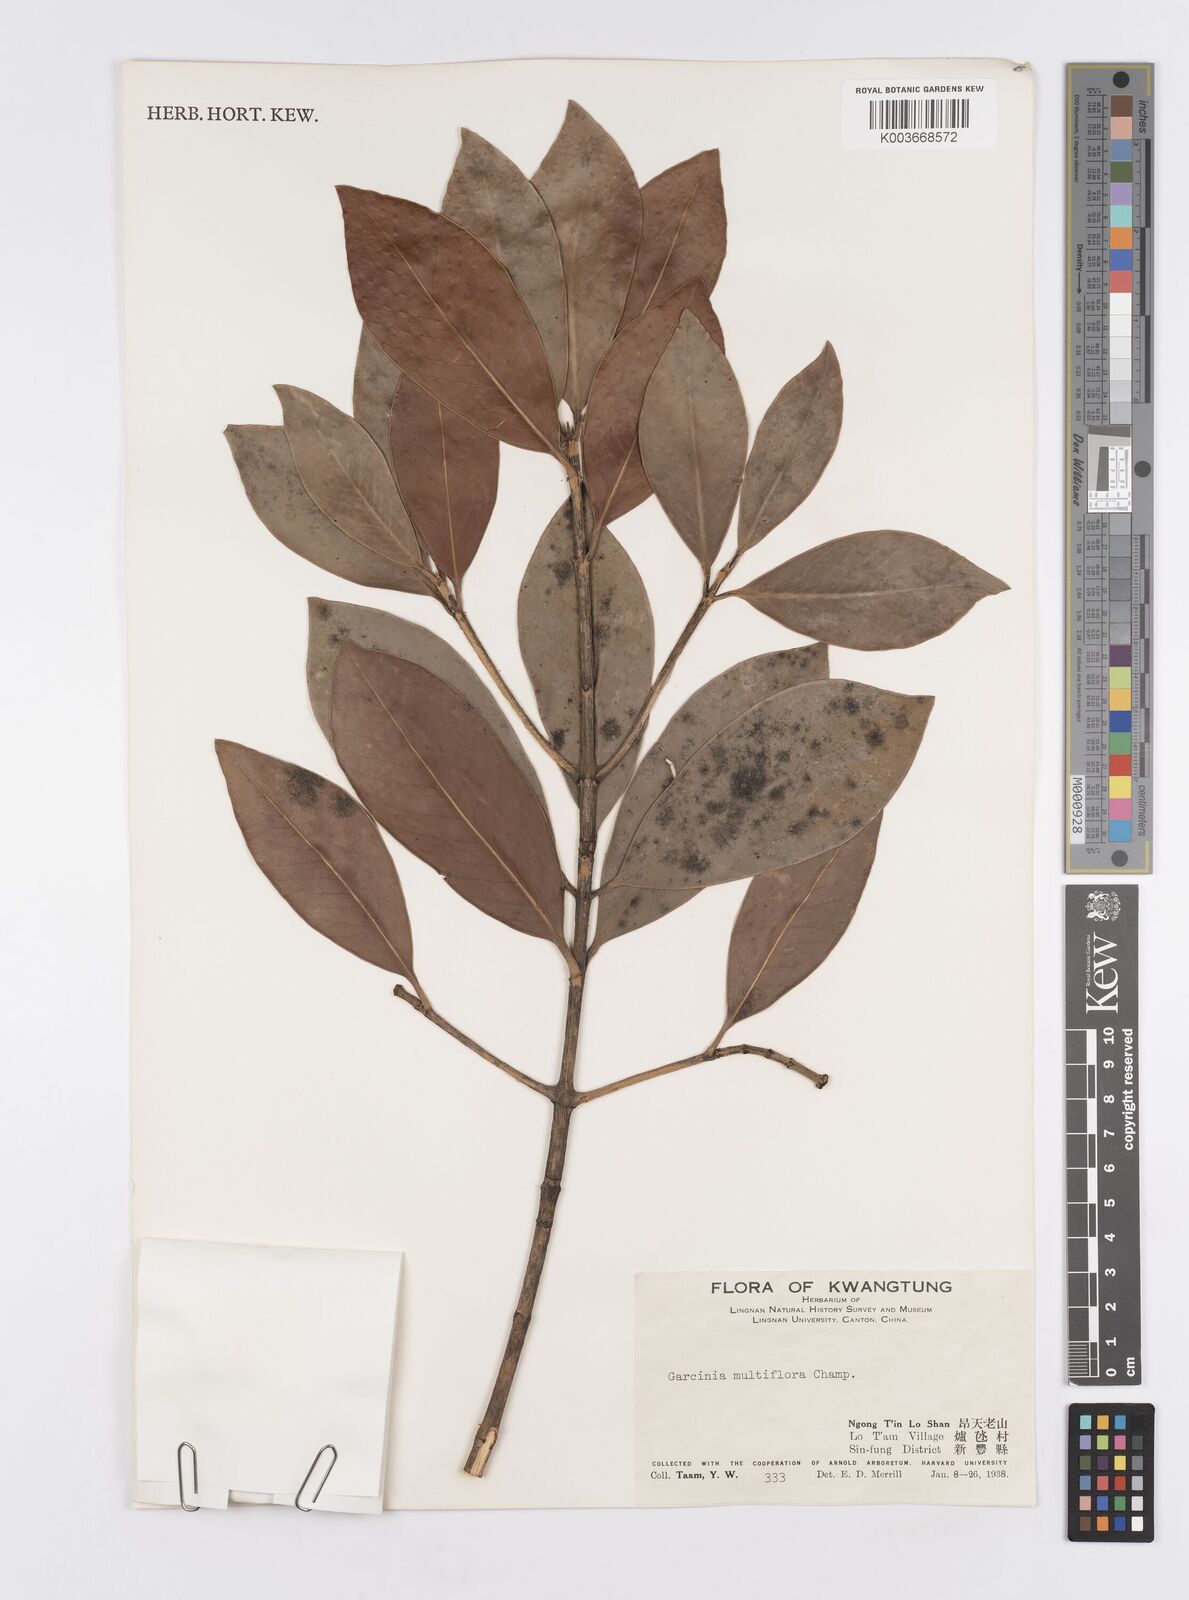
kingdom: Plantae
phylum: Tracheophyta
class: Magnoliopsida
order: Malpighiales
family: Clusiaceae
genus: Garcinia
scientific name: Garcinia multiflora
